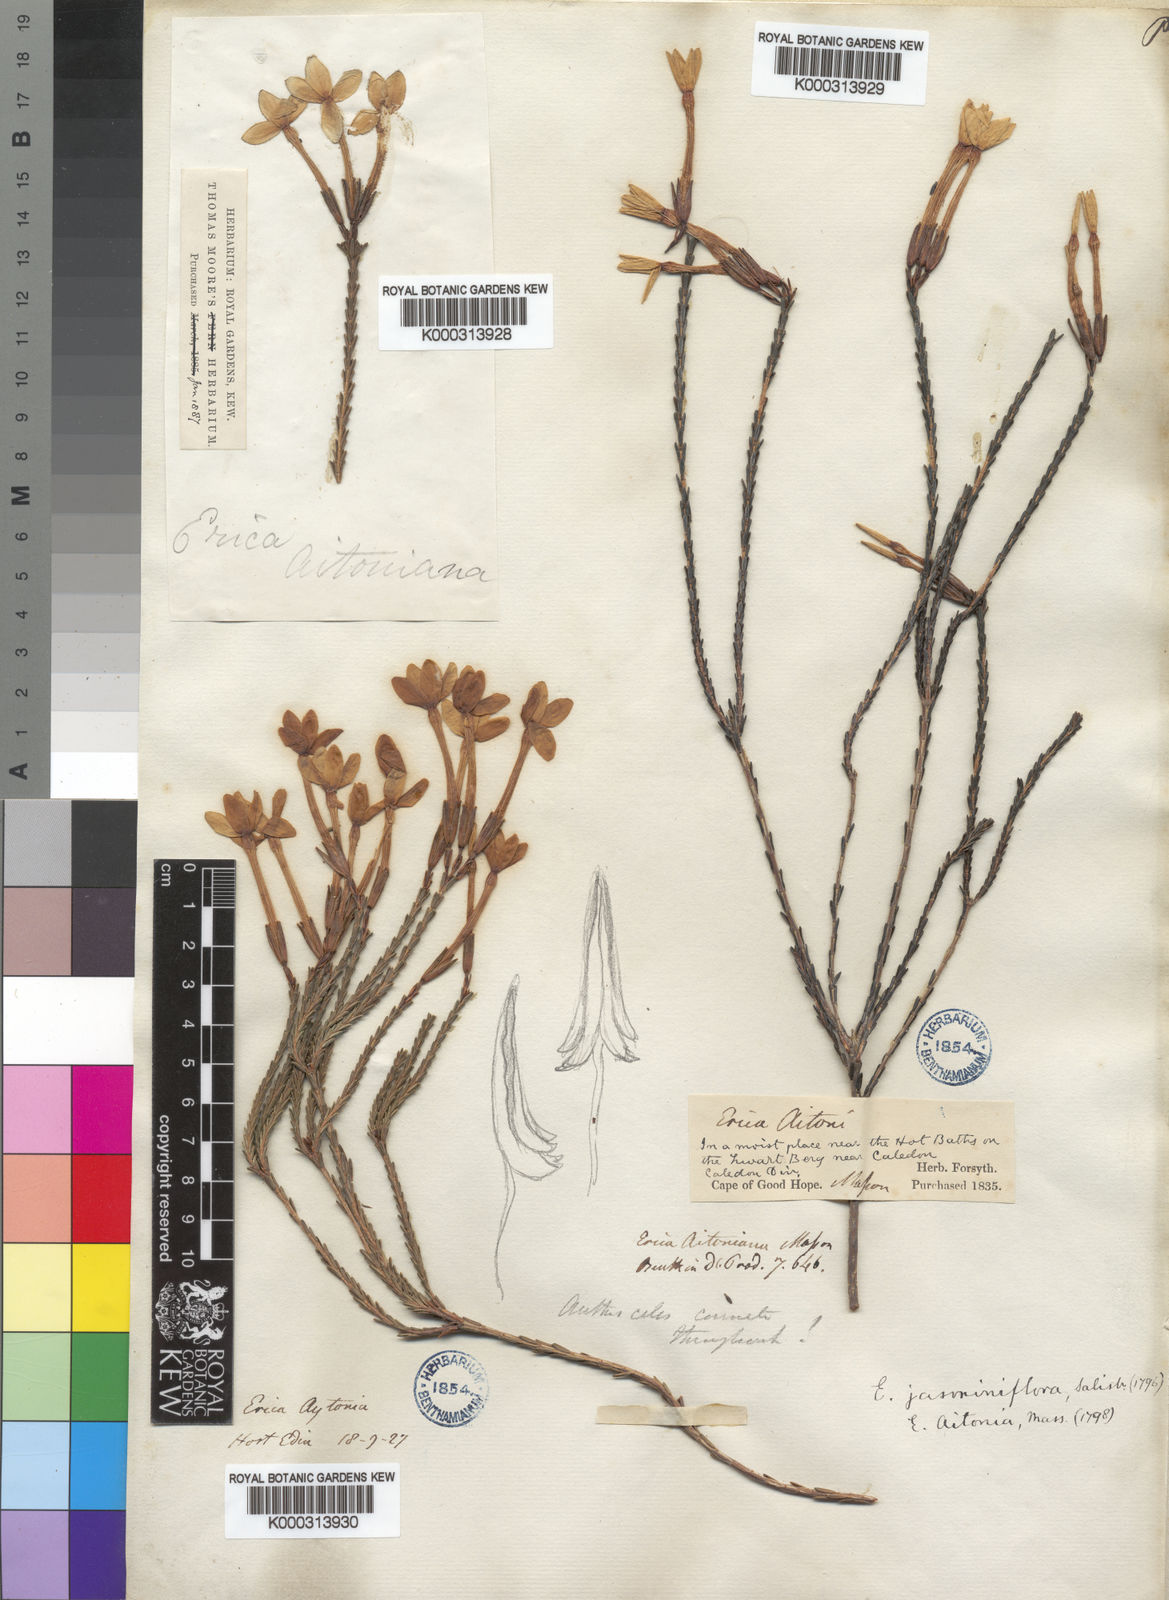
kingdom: Plantae
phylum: Tracheophyta
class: Magnoliopsida
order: Ericales
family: Ericaceae
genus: Erica
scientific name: Erica jasminiflora
